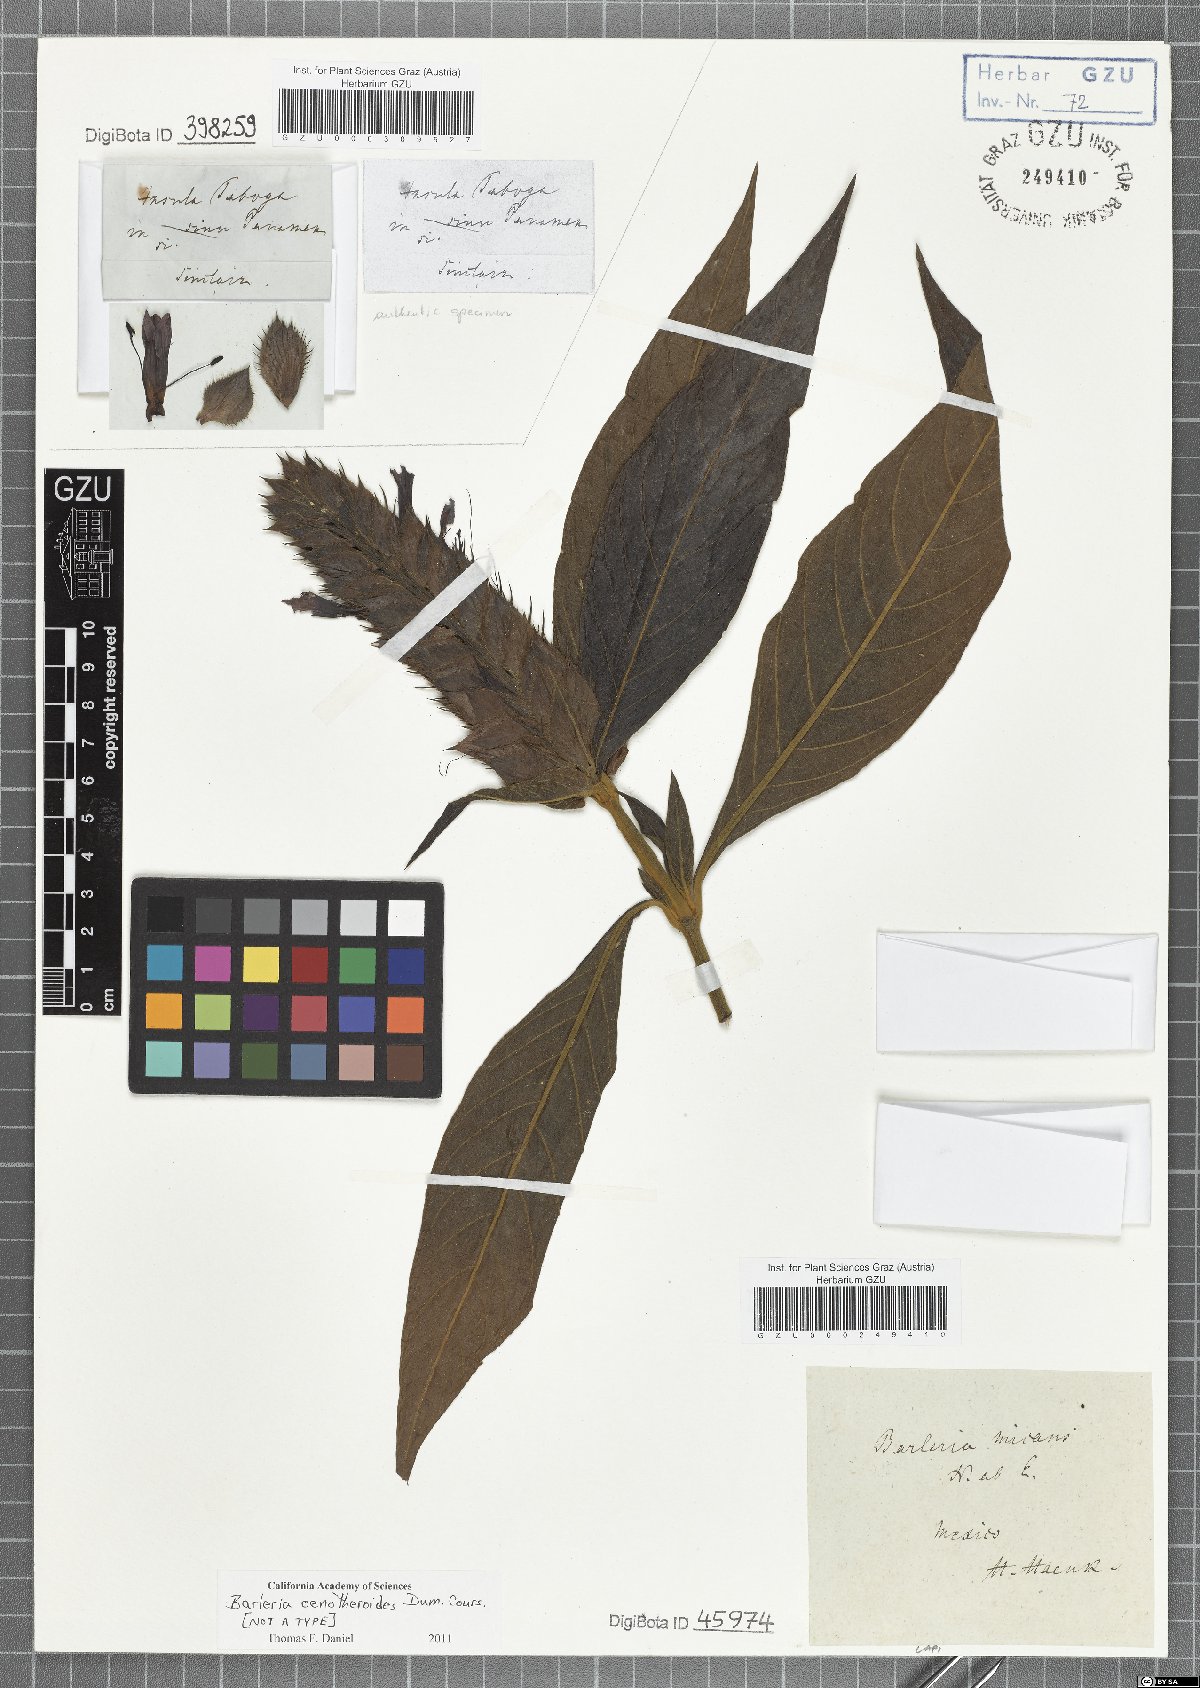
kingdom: Plantae
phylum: Tracheophyta
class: Magnoliopsida
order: Lamiales
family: Acanthaceae
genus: Barleria
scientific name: Barleria oenotheroides
